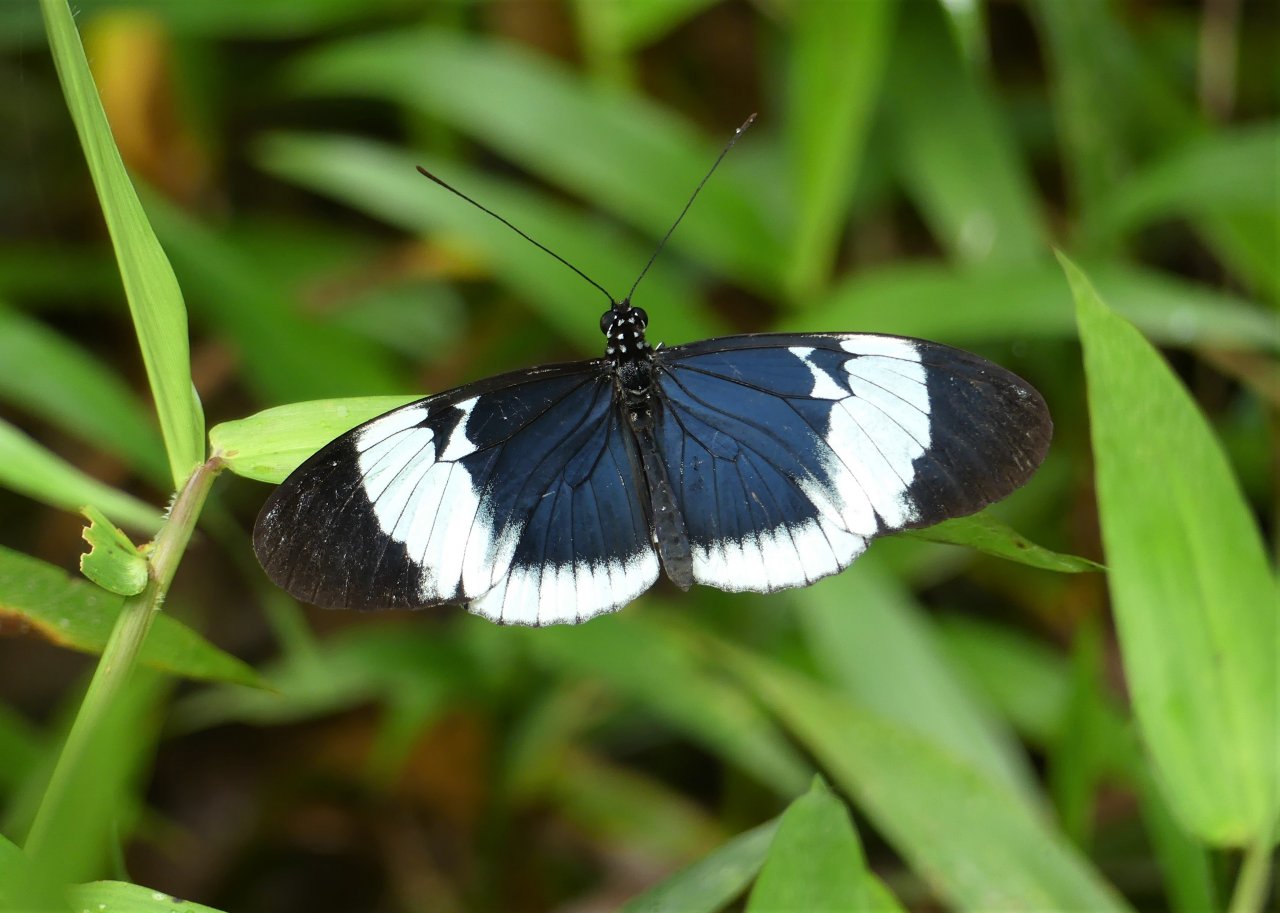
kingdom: Animalia
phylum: Arthropoda
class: Insecta
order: Lepidoptera
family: Nymphalidae
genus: Heliconius
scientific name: Heliconius cydno
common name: Cydno Longwing
